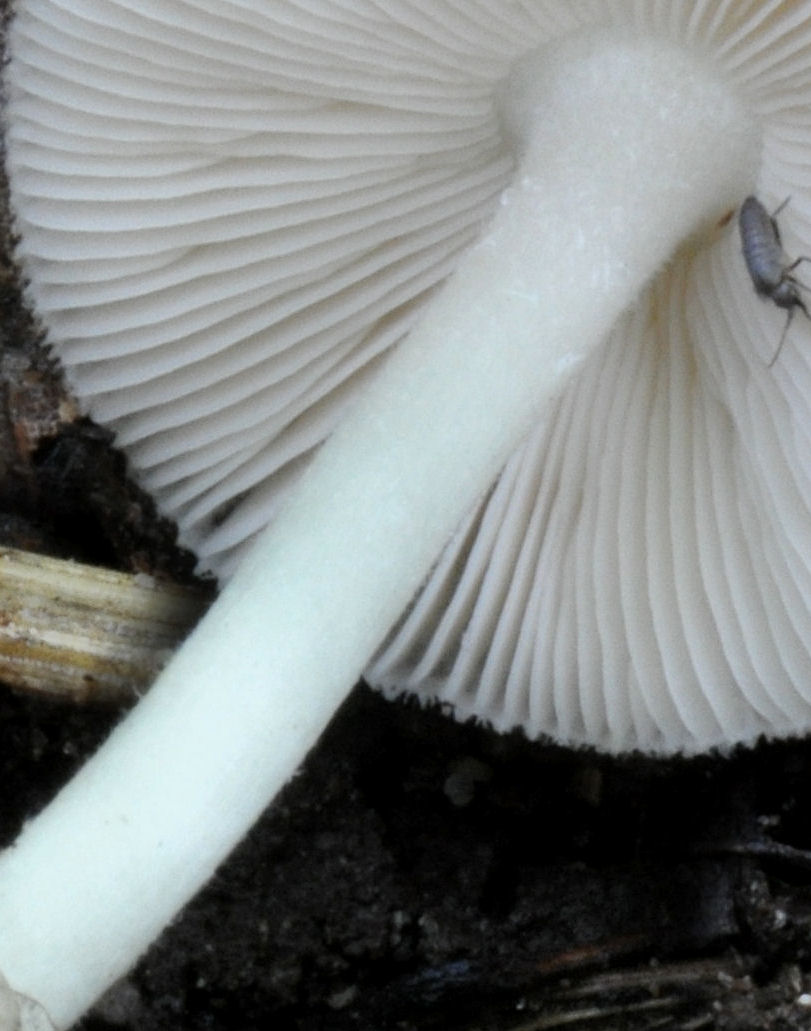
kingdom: Fungi
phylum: Basidiomycota
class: Agaricomycetes
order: Agaricales
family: Pluteaceae
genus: Volvariella
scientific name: Volvariella murinella
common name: musegrå posesvamp
